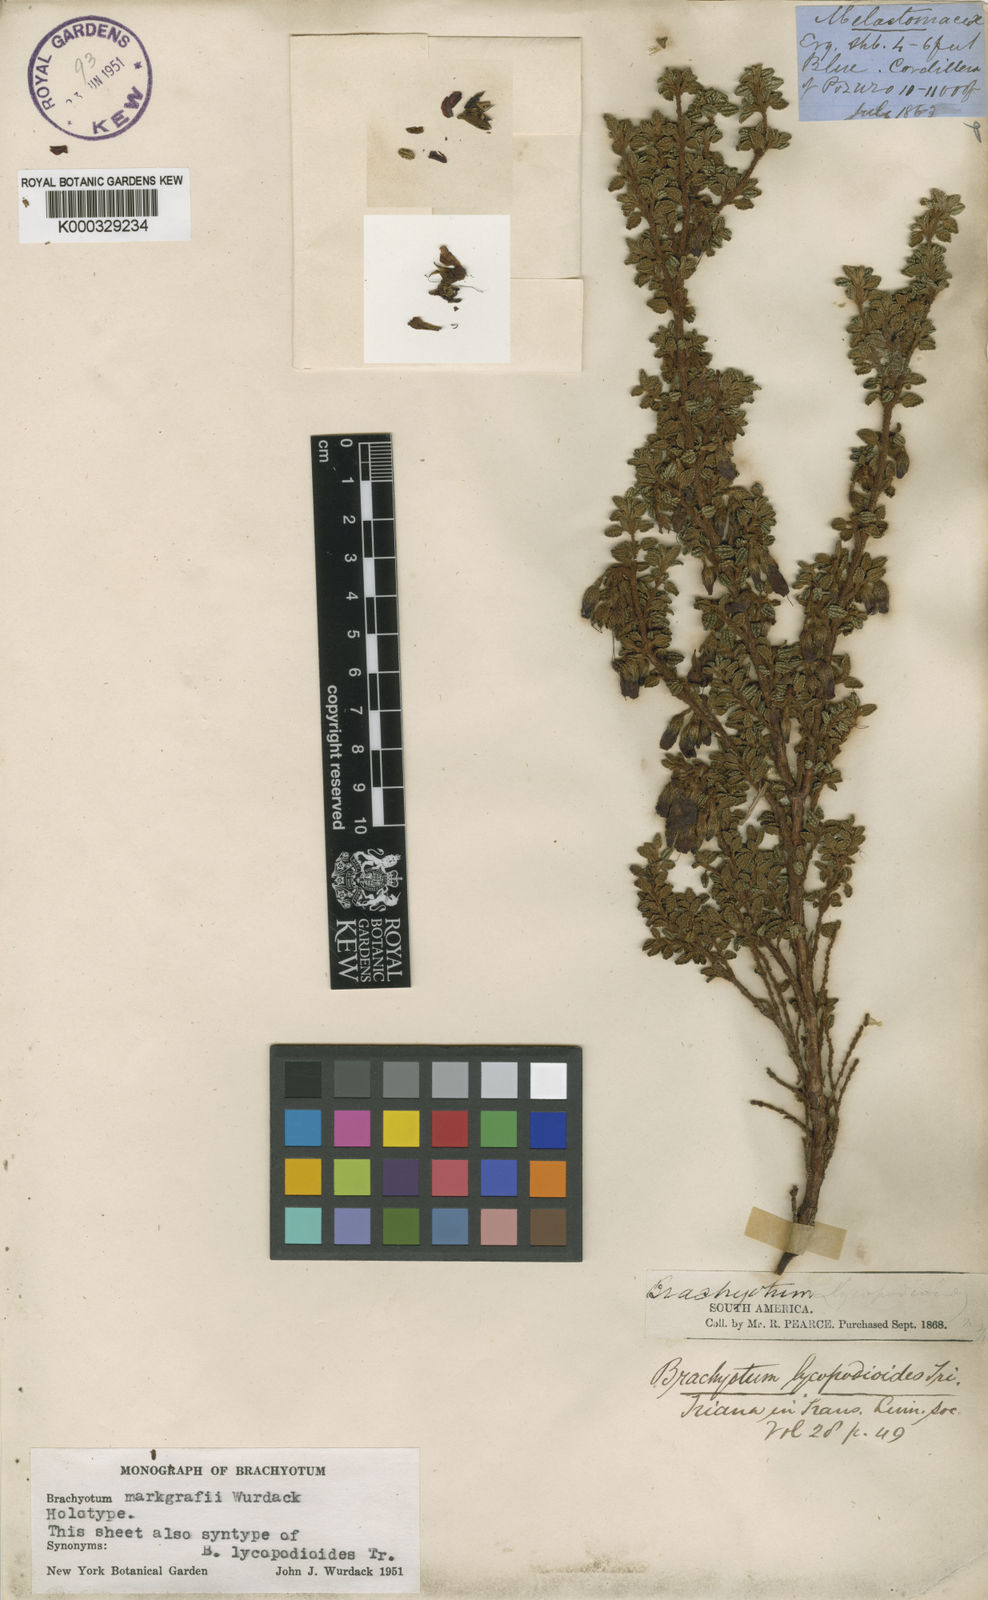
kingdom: Plantae
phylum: Tracheophyta
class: Magnoliopsida
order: Myrtales
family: Melastomataceae
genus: Brachyotum
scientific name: Brachyotum lycopodioides
